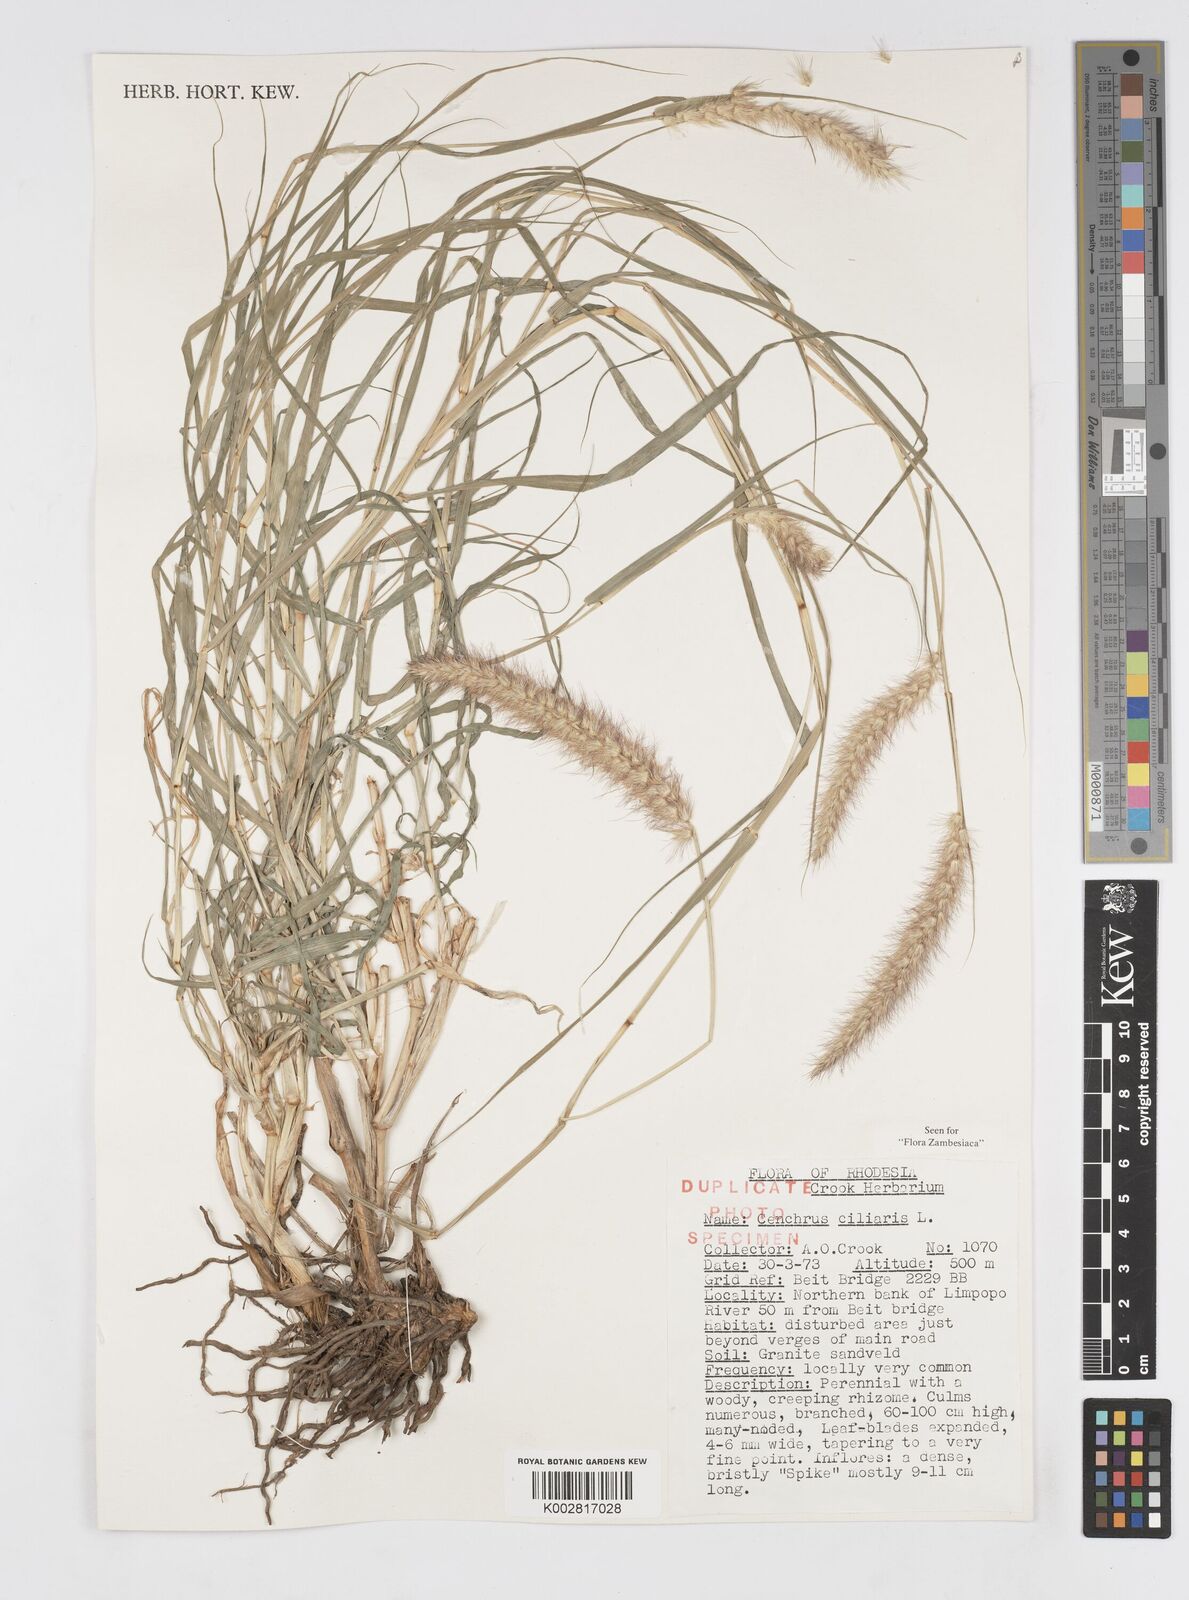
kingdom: Plantae
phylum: Tracheophyta
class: Liliopsida
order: Poales
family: Poaceae
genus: Cenchrus
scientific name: Cenchrus ciliaris
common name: Buffelgrass
